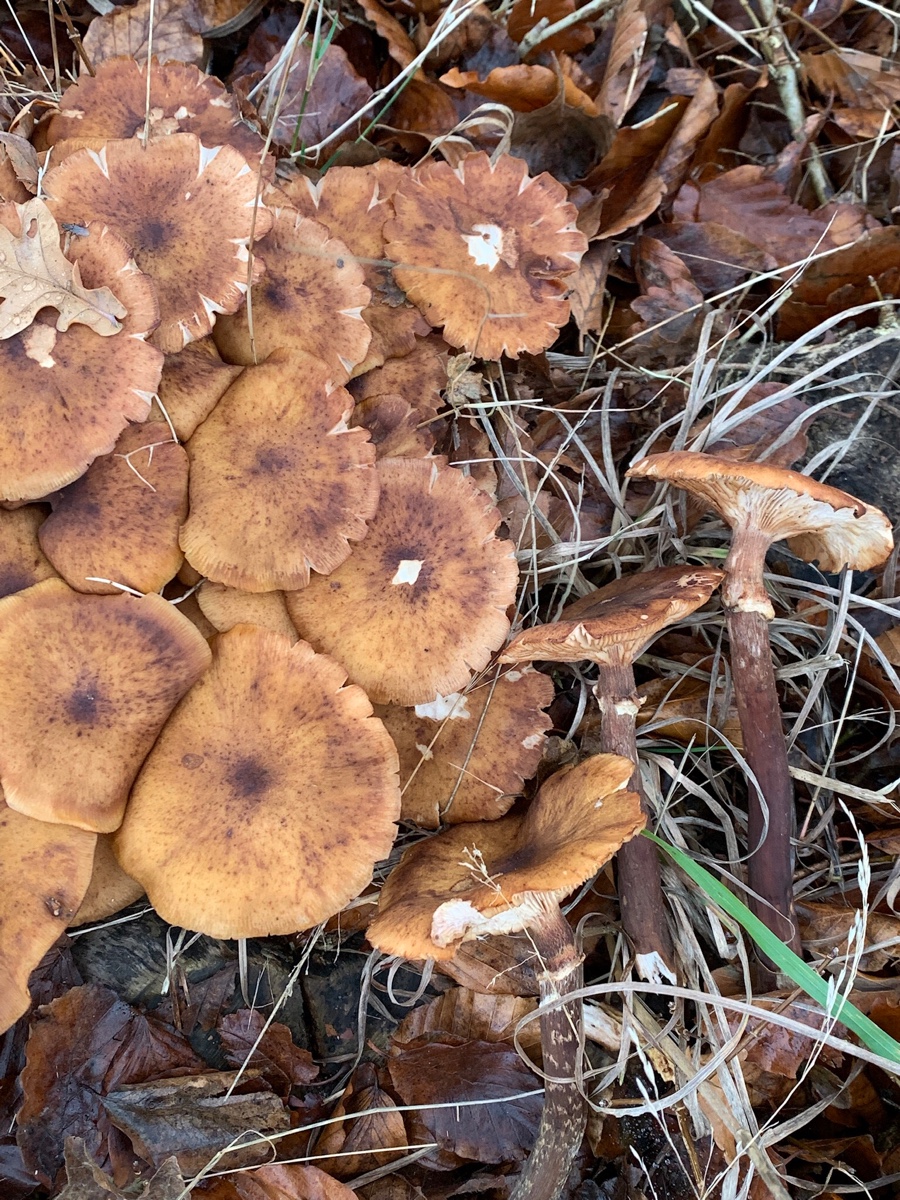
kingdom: Fungi
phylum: Basidiomycota
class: Agaricomycetes
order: Agaricales
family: Physalacriaceae
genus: Armillaria
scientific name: Armillaria mellea
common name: ægte honningsvamp
